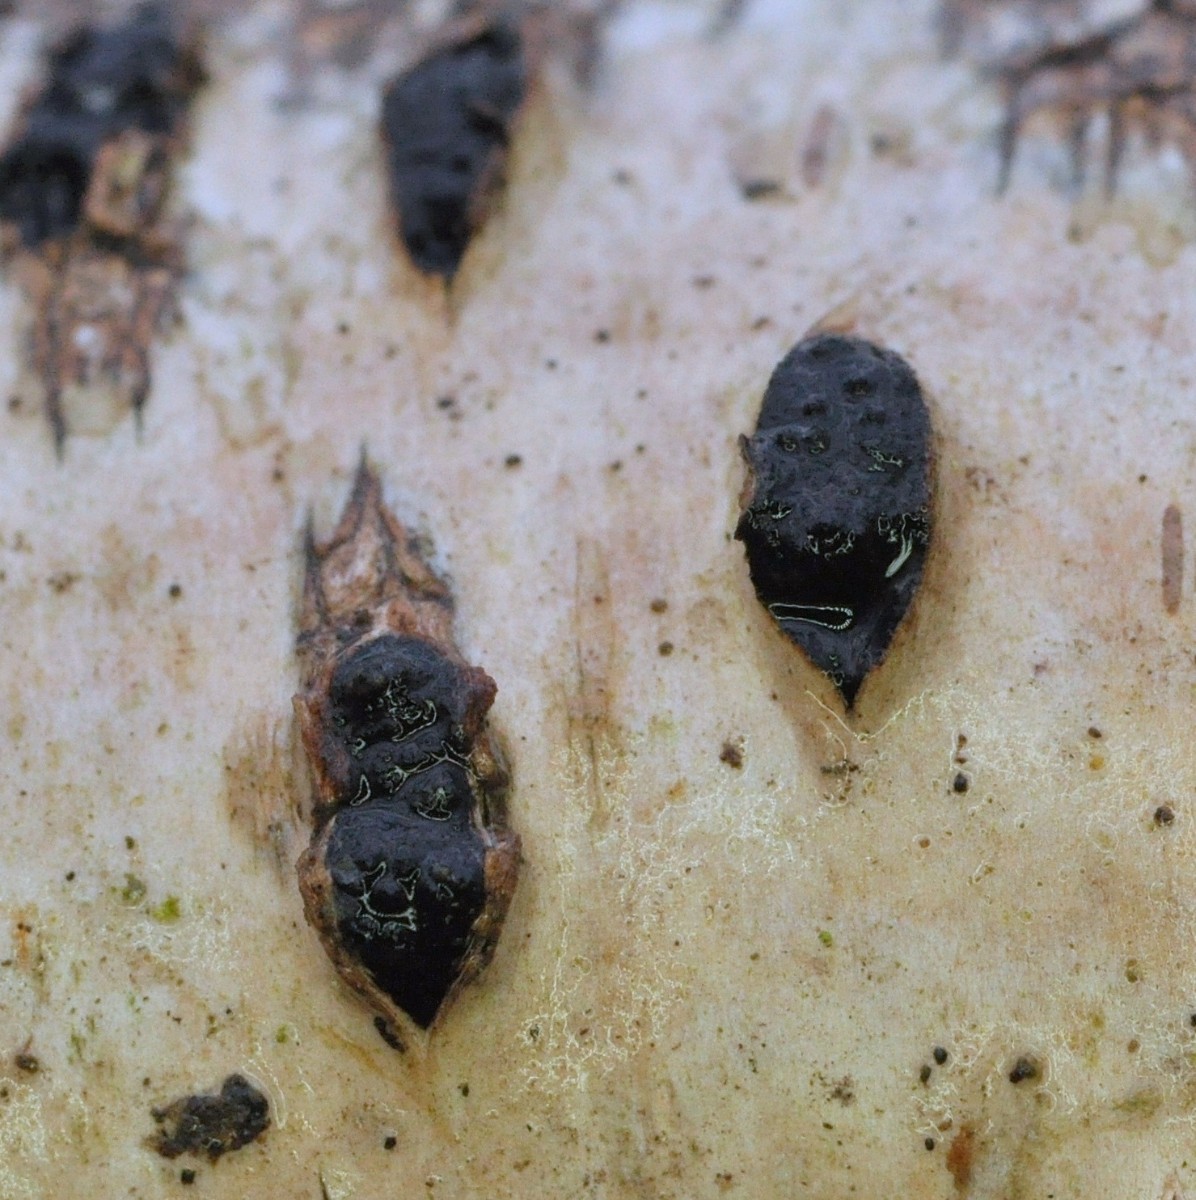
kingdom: Fungi
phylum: Ascomycota
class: Sordariomycetes
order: Xylariales
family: Hypoxylaceae
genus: Jackrogersella
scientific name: Jackrogersella multiformis
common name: foranderlig kulbær
